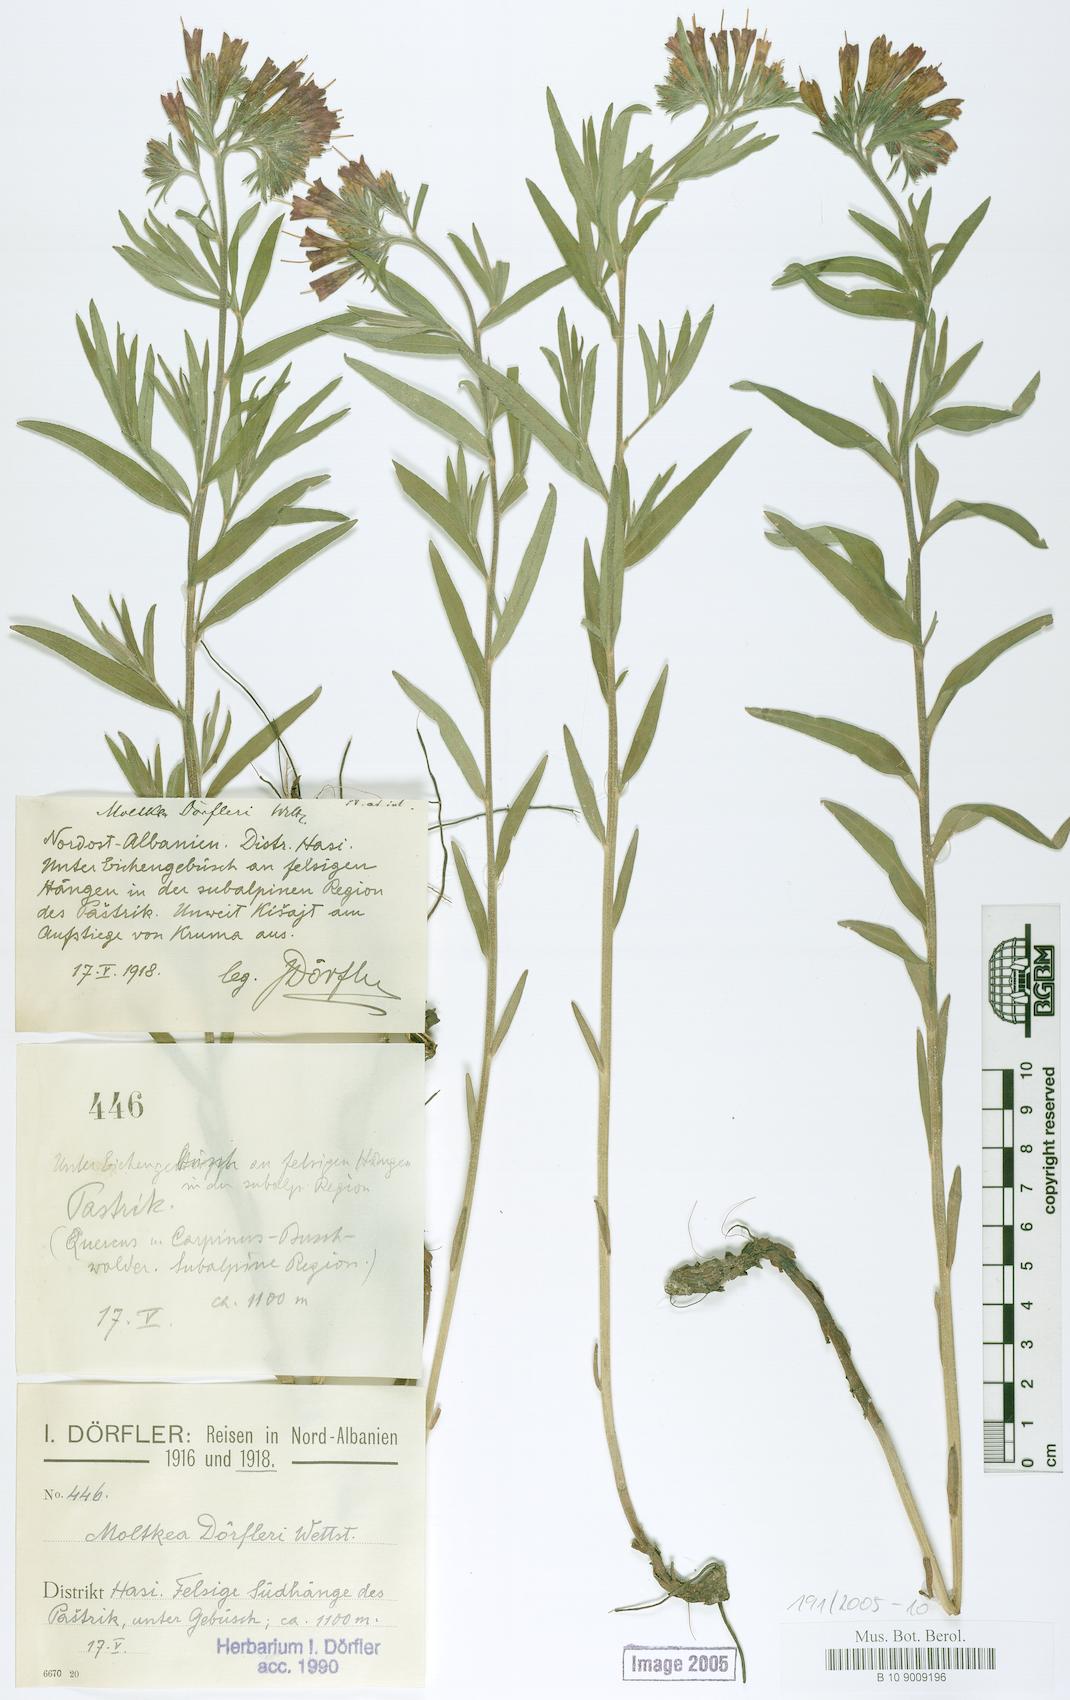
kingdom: Plantae
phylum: Tracheophyta
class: Magnoliopsida
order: Boraginales
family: Boraginaceae
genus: Paramoltkia
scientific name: Paramoltkia doerfleri
